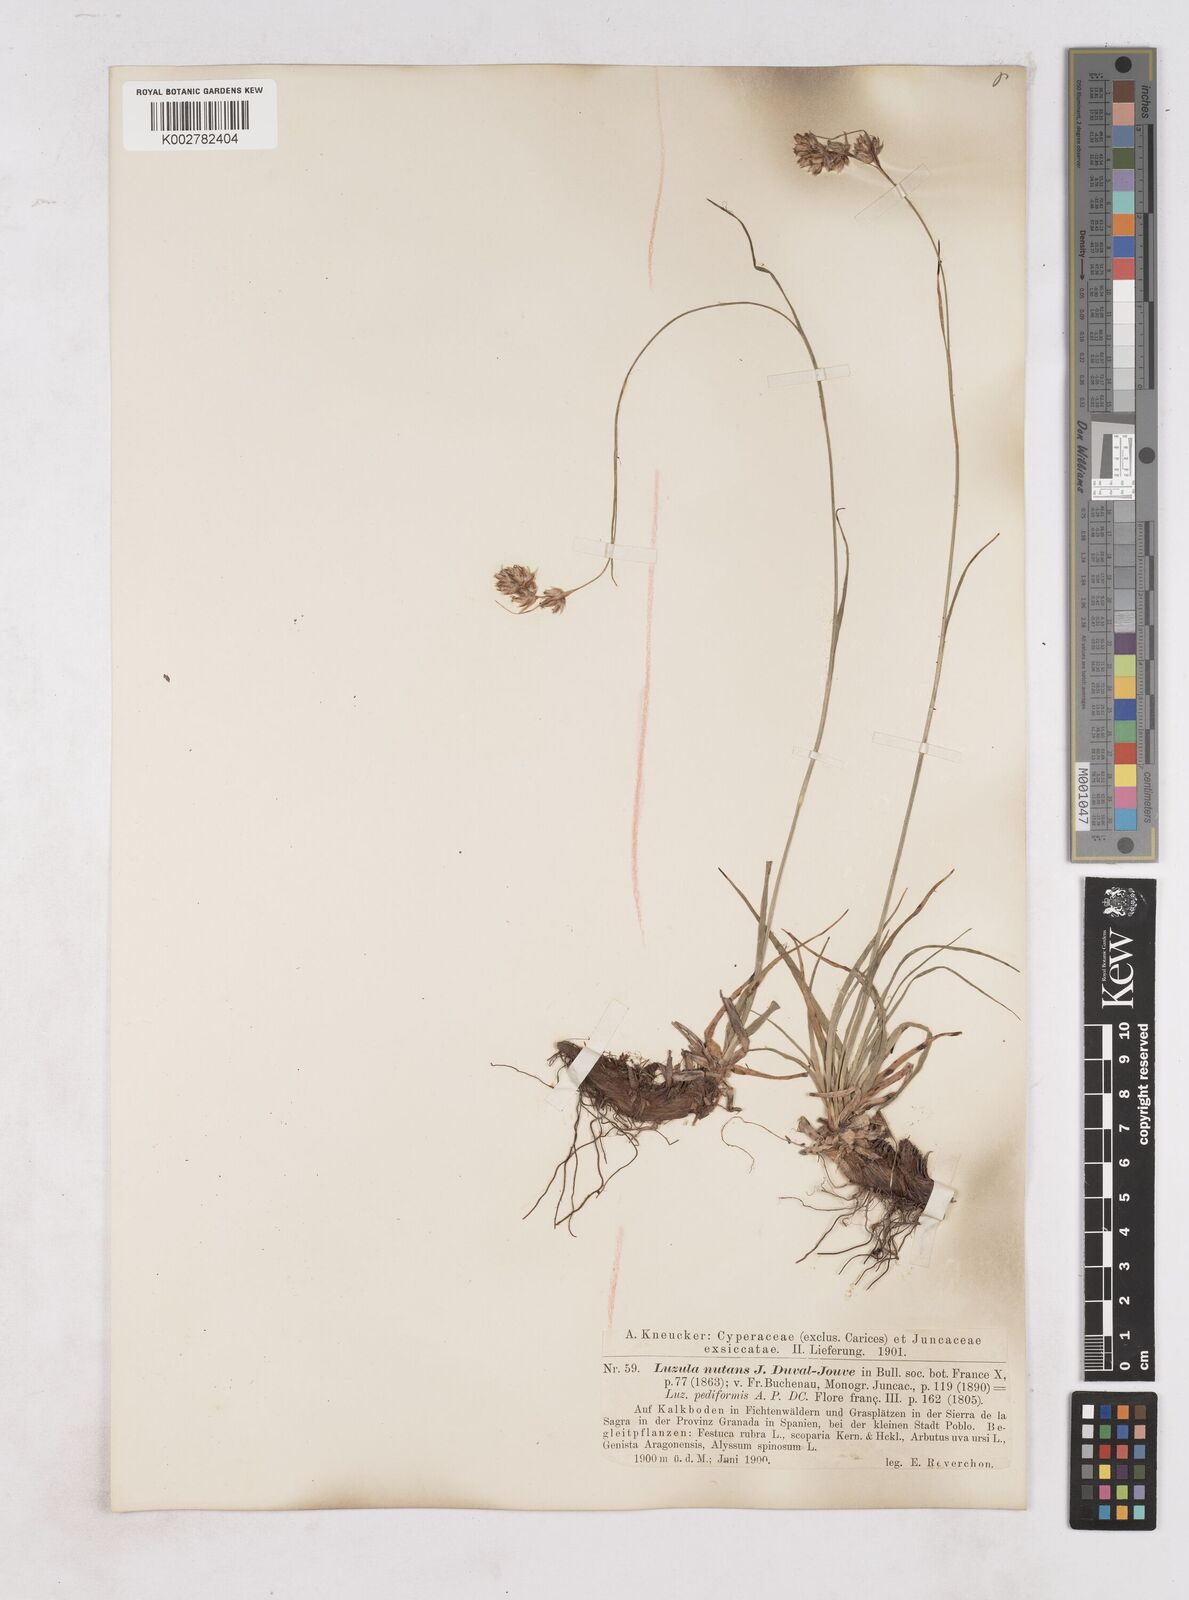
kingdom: Plantae
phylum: Tracheophyta
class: Liliopsida
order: Poales
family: Juncaceae
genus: Luzula
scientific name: Luzula pediformis
